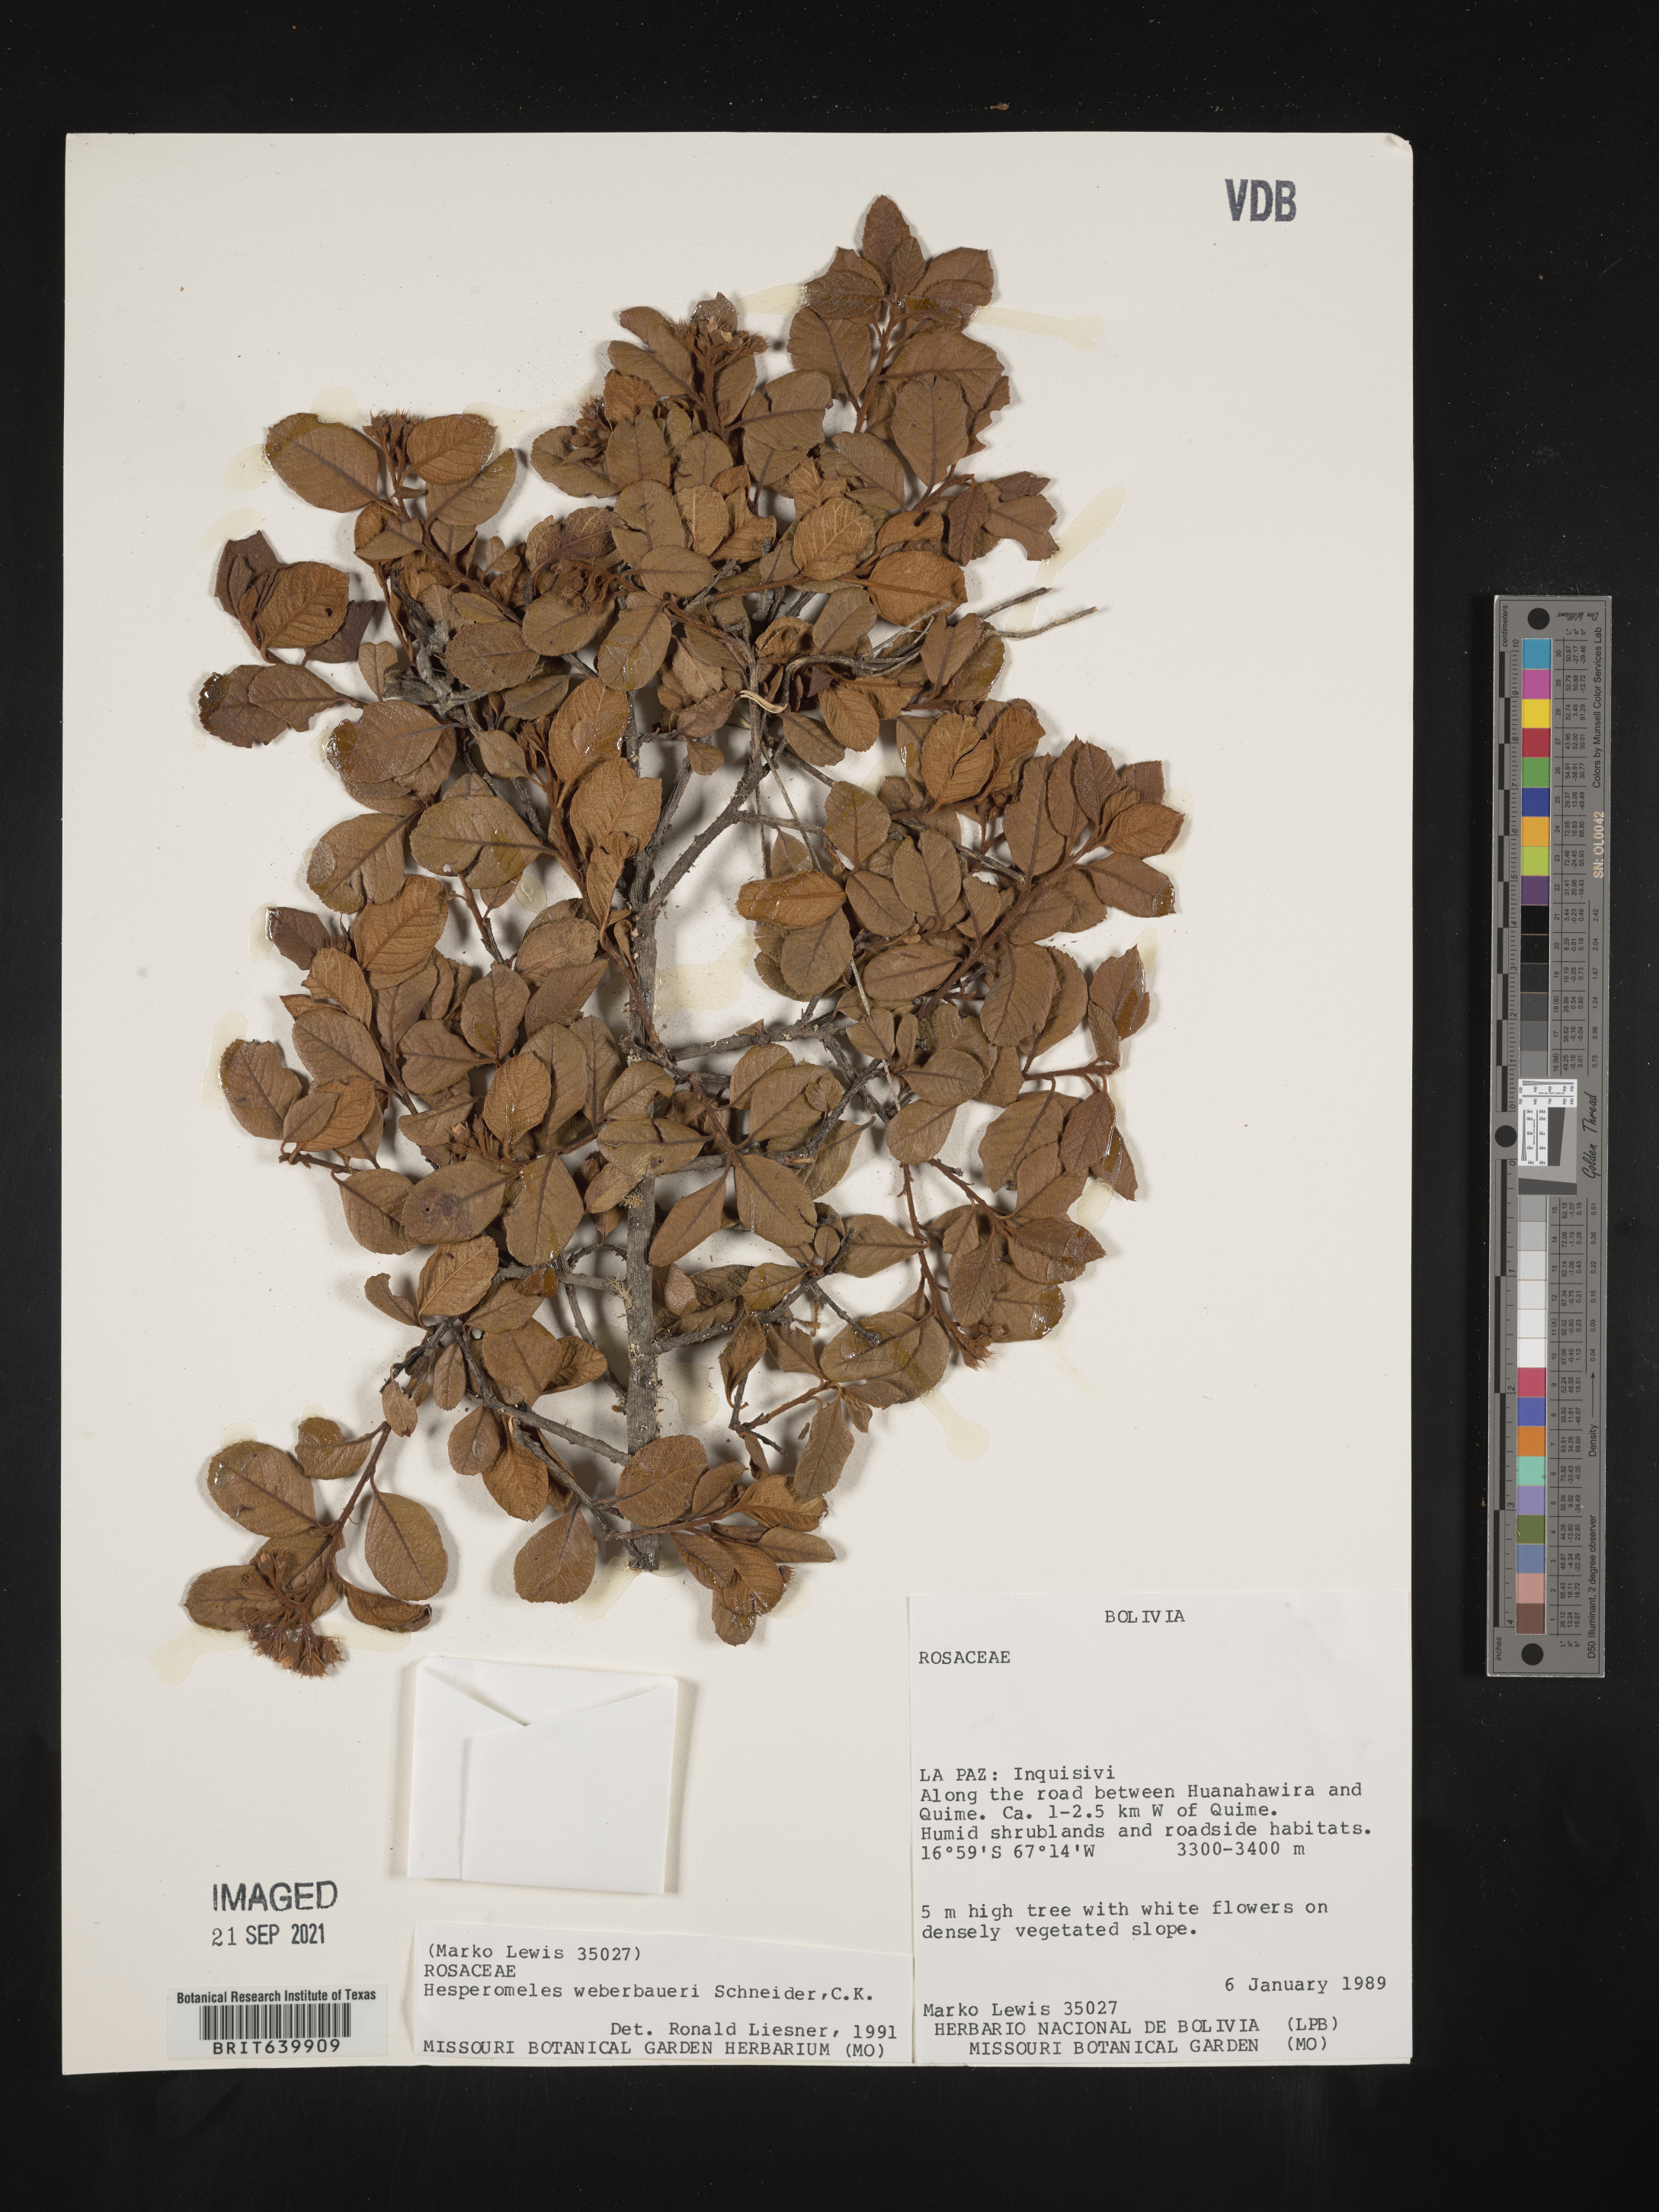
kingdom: Plantae
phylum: Tracheophyta
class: Magnoliopsida
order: Rosales
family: Rosaceae
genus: Hesperomeles
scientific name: Hesperomeles
